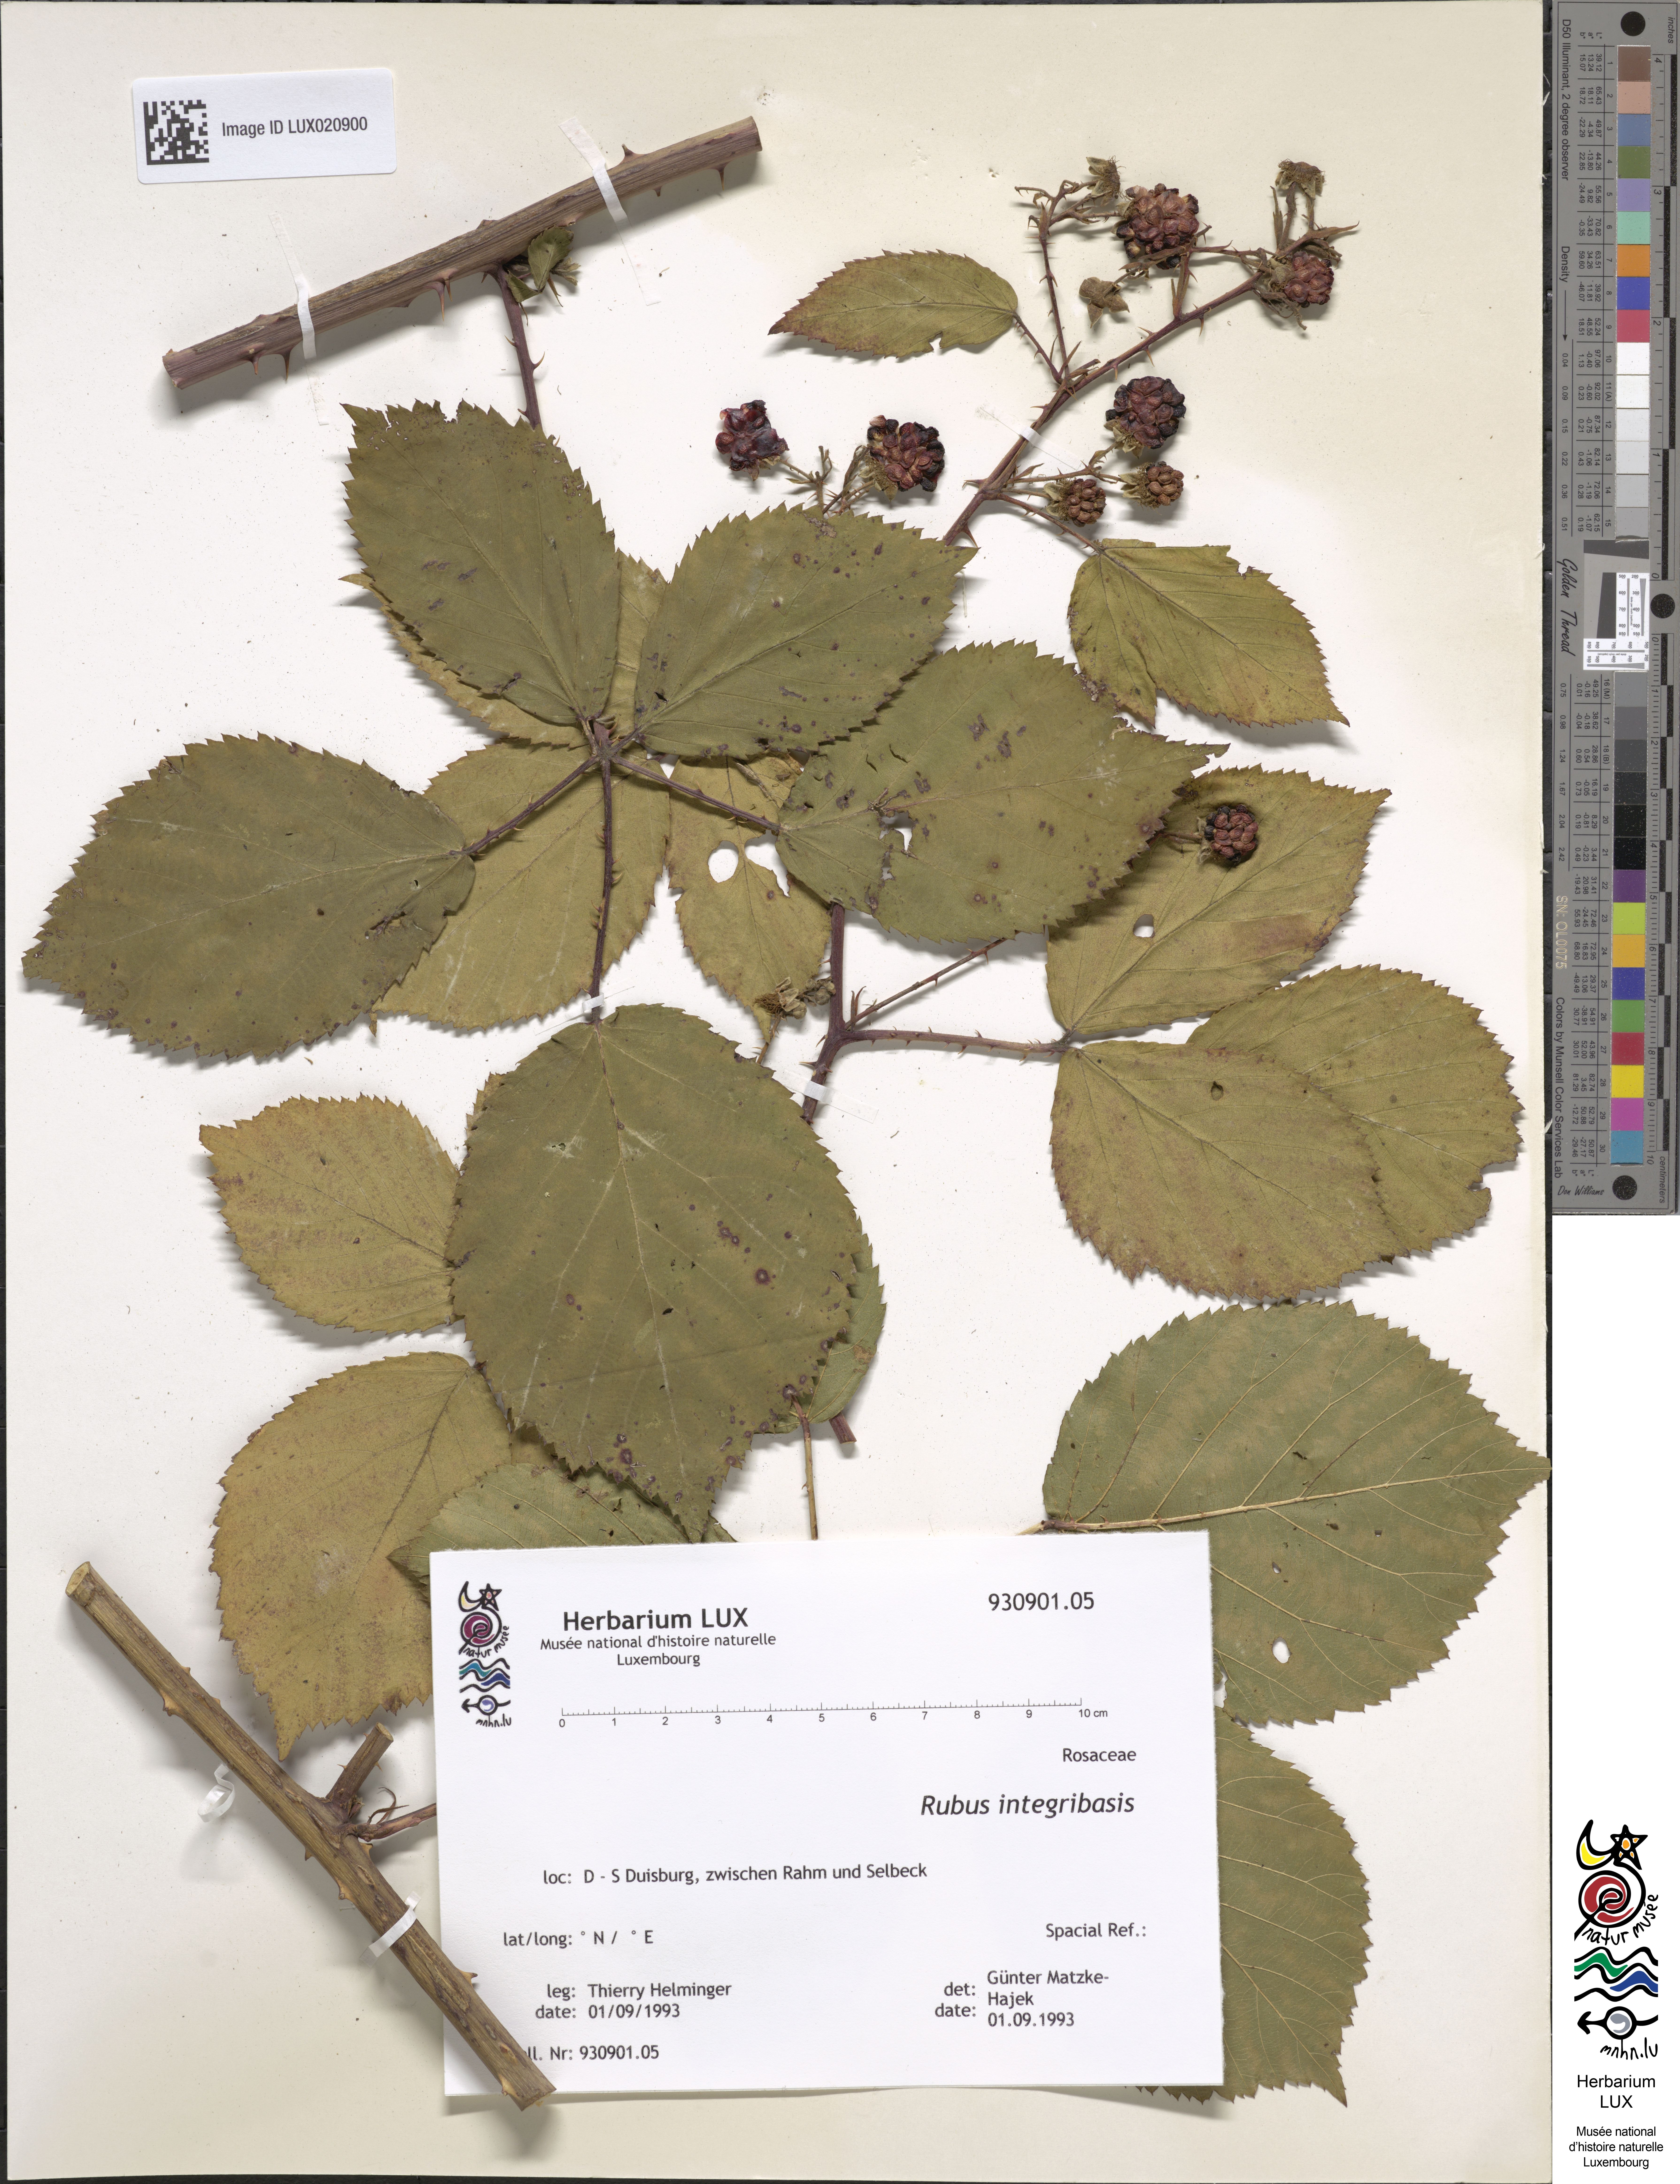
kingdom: Plantae
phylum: Tracheophyta
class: Magnoliopsida
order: Rosales
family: Rosaceae
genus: Rubus
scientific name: Rubus integribasis
